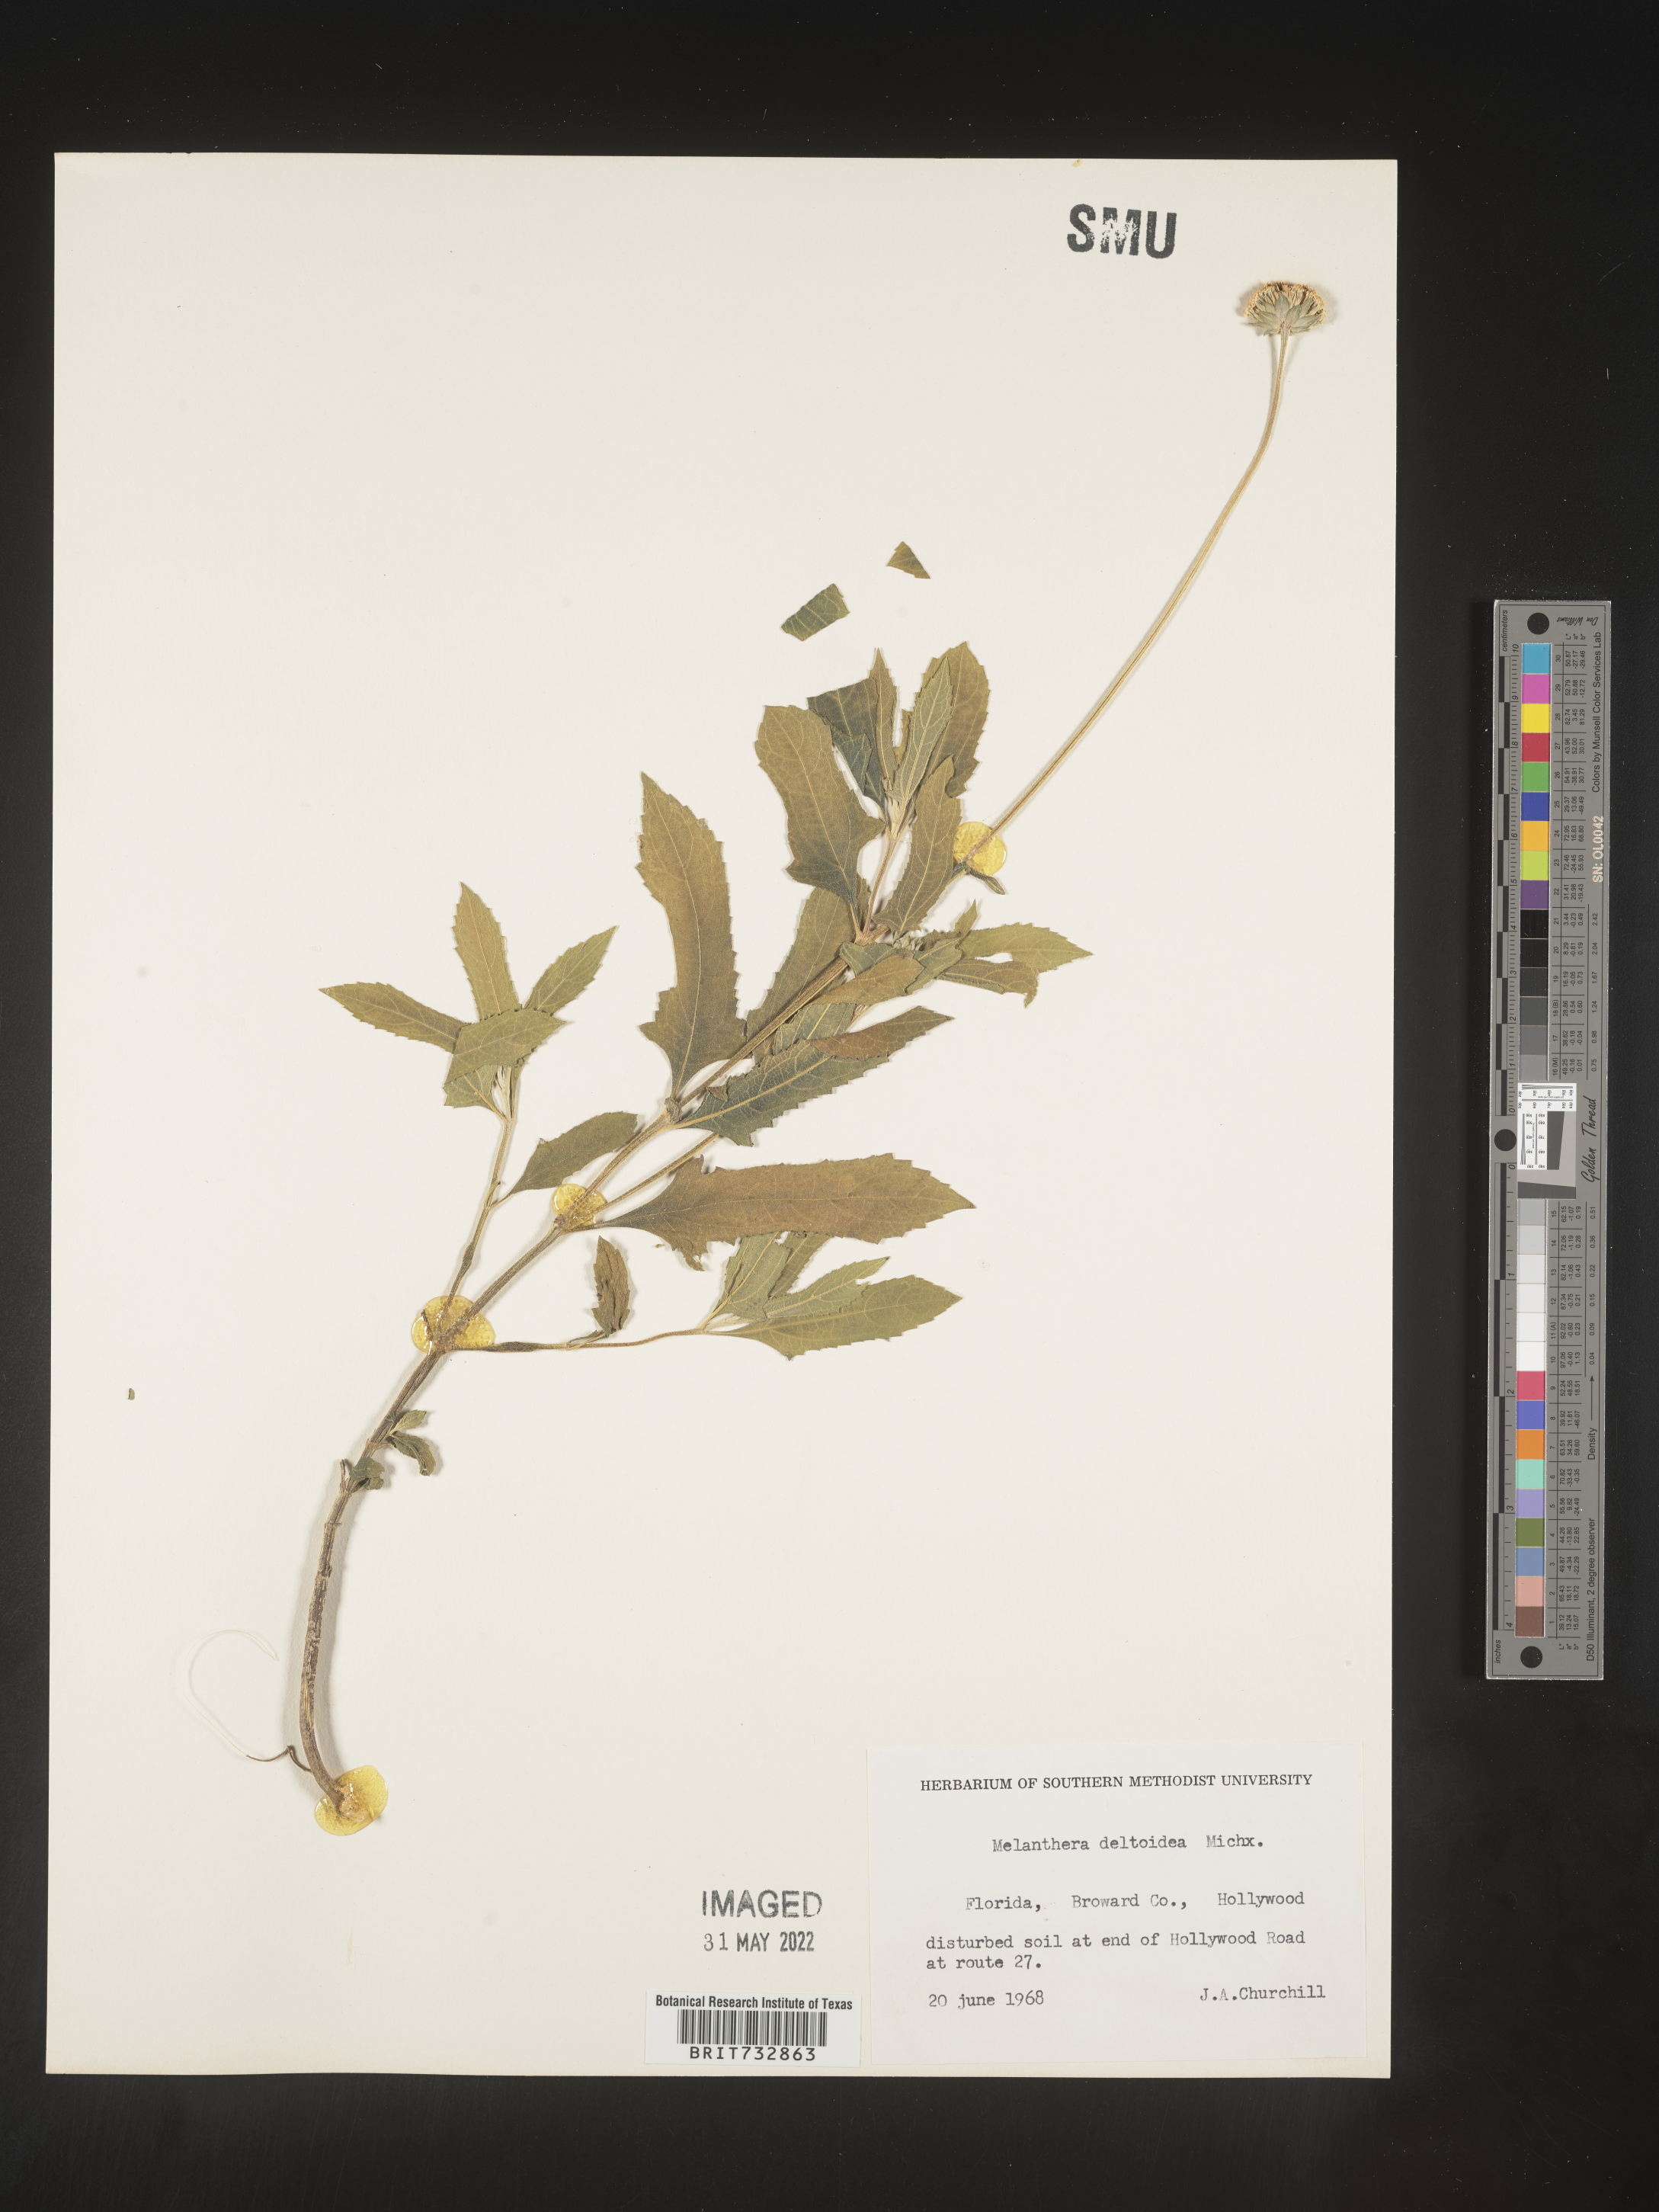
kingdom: Plantae
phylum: Tracheophyta
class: Magnoliopsida
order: Asterales
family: Asteraceae
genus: Melanthera
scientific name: Melanthera nivea
